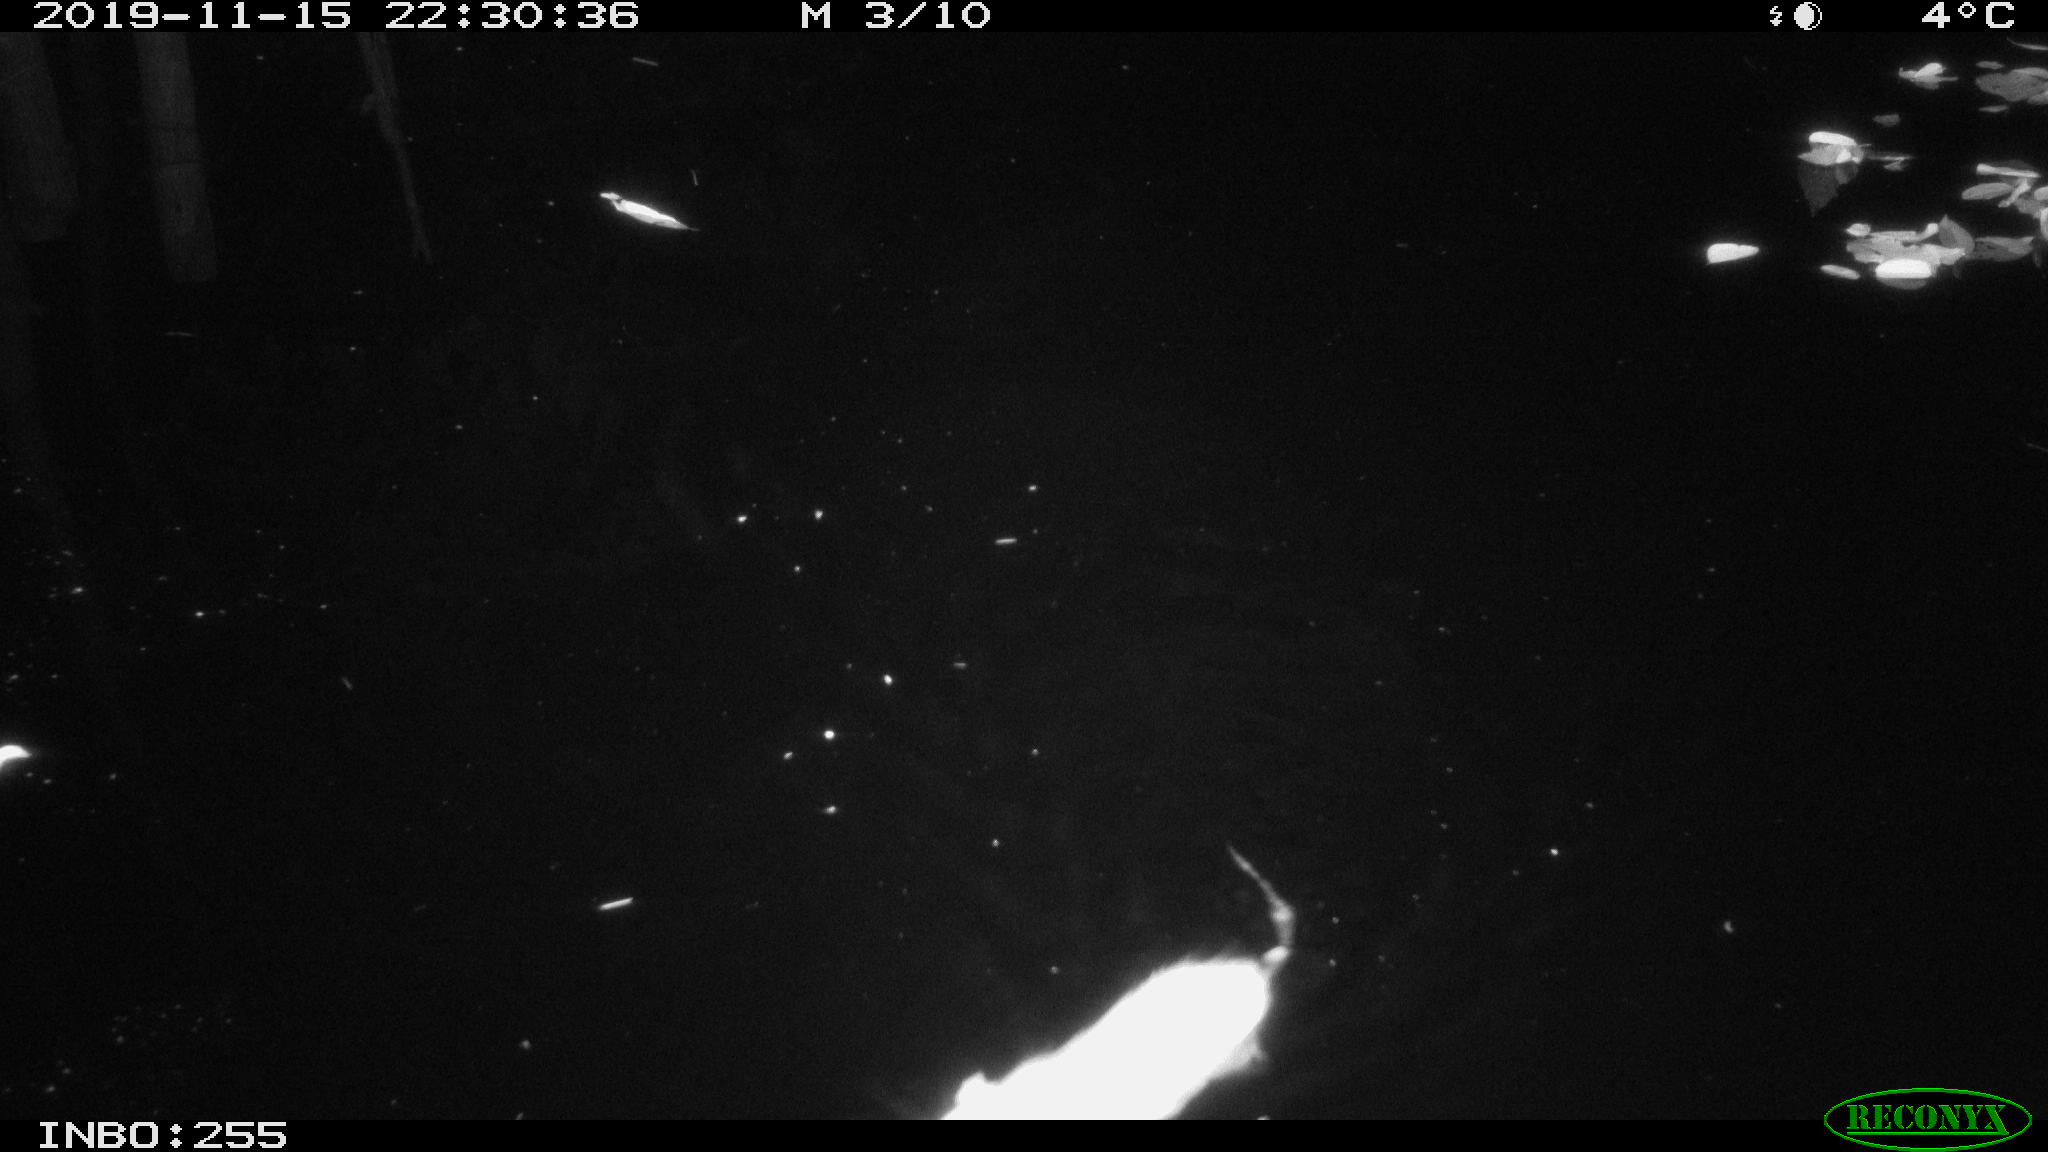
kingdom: Animalia
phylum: Chordata
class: Mammalia
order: Rodentia
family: Muridae
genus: Rattus
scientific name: Rattus norvegicus
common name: Brown rat
